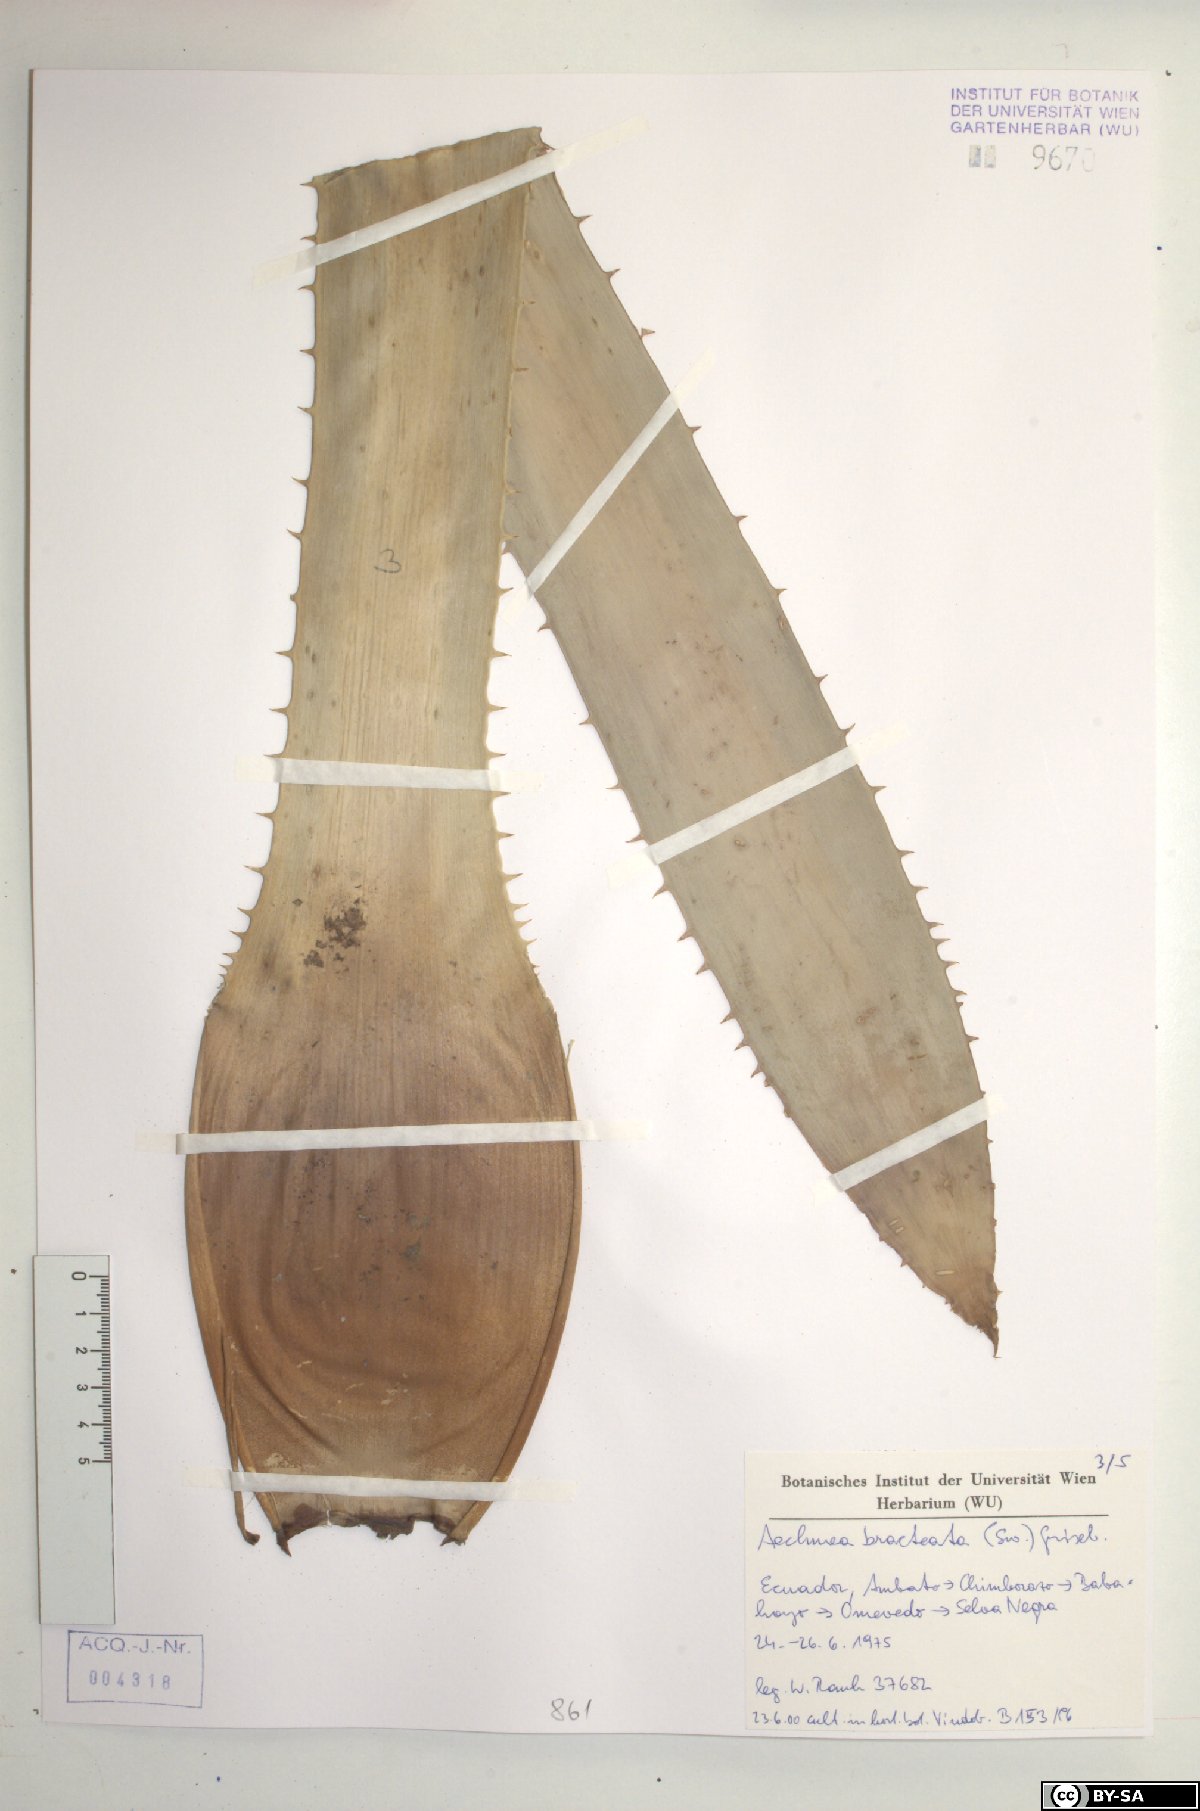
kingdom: Plantae
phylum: Tracheophyta
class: Liliopsida
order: Poales
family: Bromeliaceae
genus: Aechmea
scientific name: Aechmea bracteata
